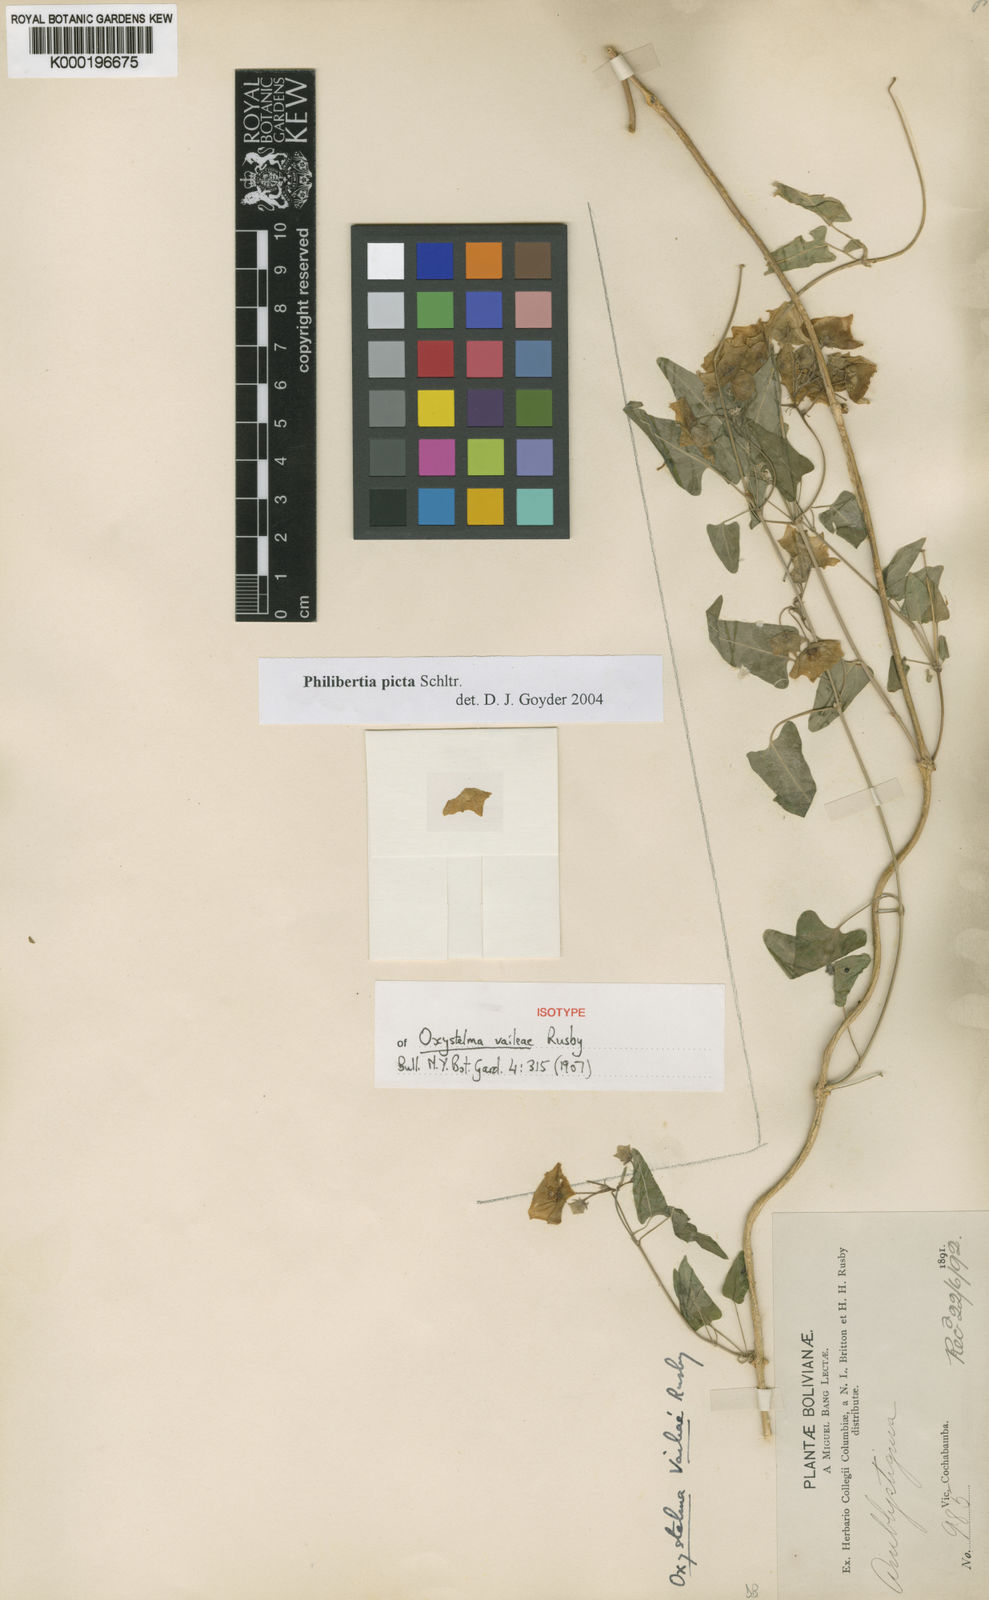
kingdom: Plantae
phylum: Tracheophyta
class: Magnoliopsida
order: Gentianales
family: Apocynaceae
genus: Philibertia
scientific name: Philibertia picta
